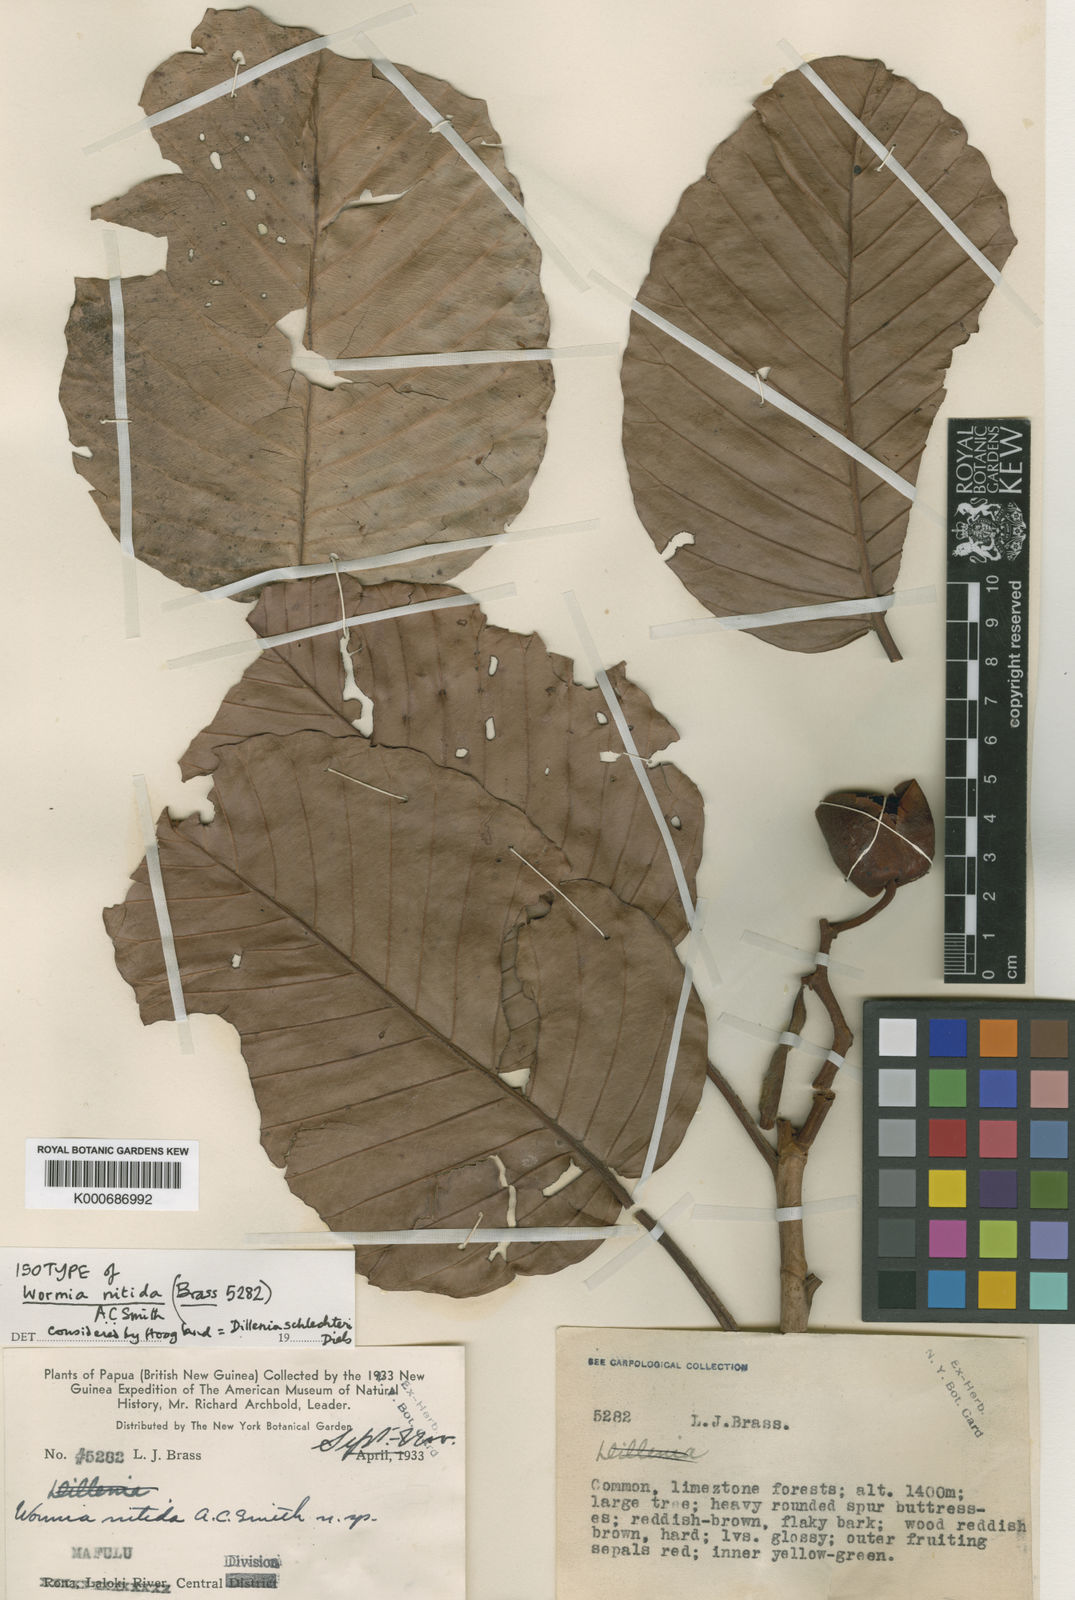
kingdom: Plantae
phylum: Tracheophyta
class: Magnoliopsida
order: Dilleniales
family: Dilleniaceae
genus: Dillenia
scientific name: Dillenia schlechteri
